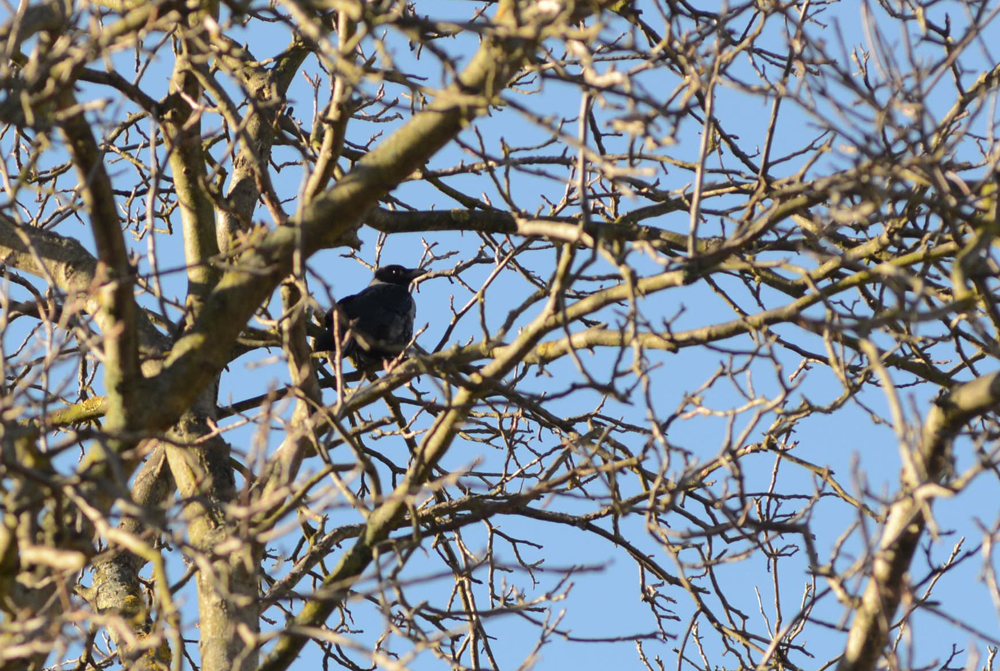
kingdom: Animalia
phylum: Chordata
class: Aves
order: Passeriformes
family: Corvidae
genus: Corvus
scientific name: Corvus cornix
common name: Hooded crow
